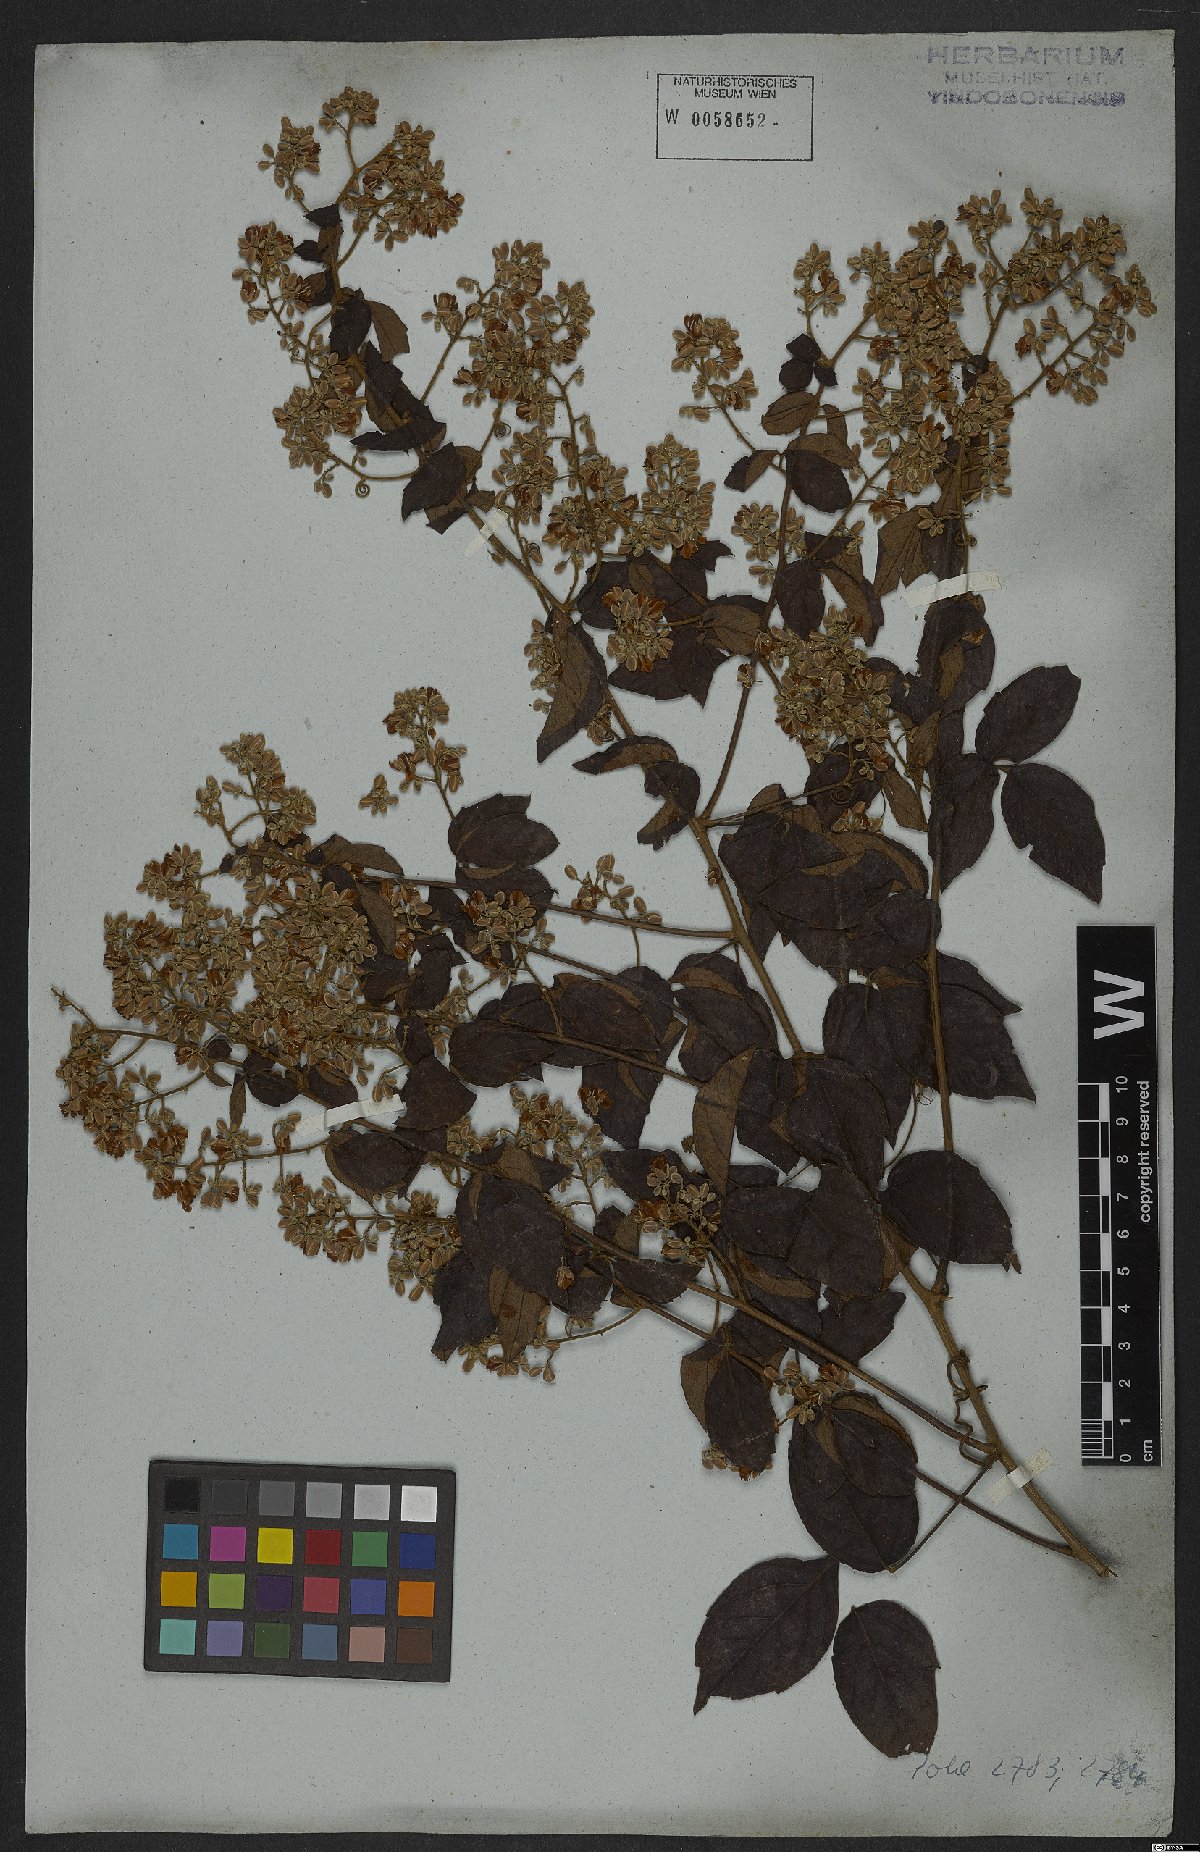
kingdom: Plantae
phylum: Tracheophyta
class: Magnoliopsida
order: Sapindales
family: Sapindaceae
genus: Serjania
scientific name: Serjania mansiana
